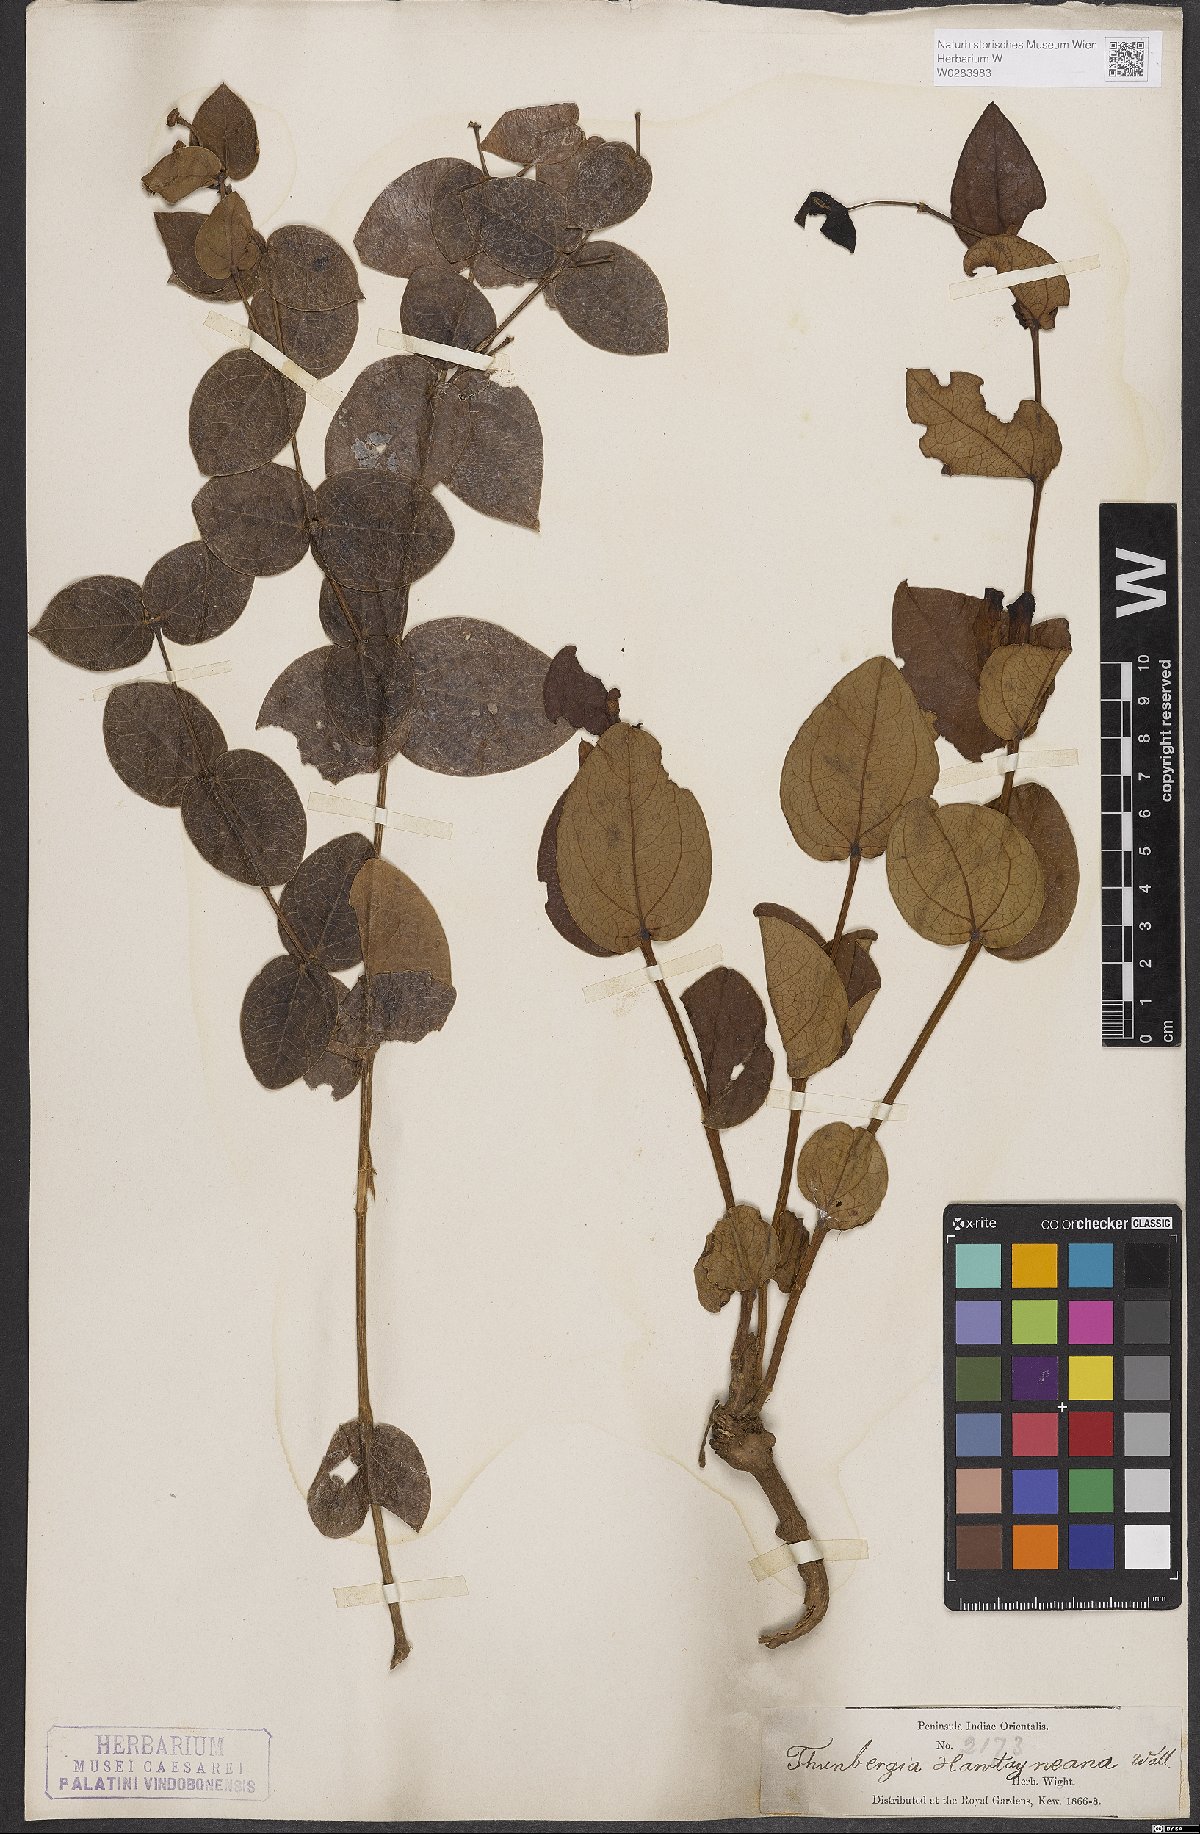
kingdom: Plantae
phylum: Tracheophyta
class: Magnoliopsida
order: Lamiales
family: Acanthaceae
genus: Meyenia
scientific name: Meyenia hawtayneana
